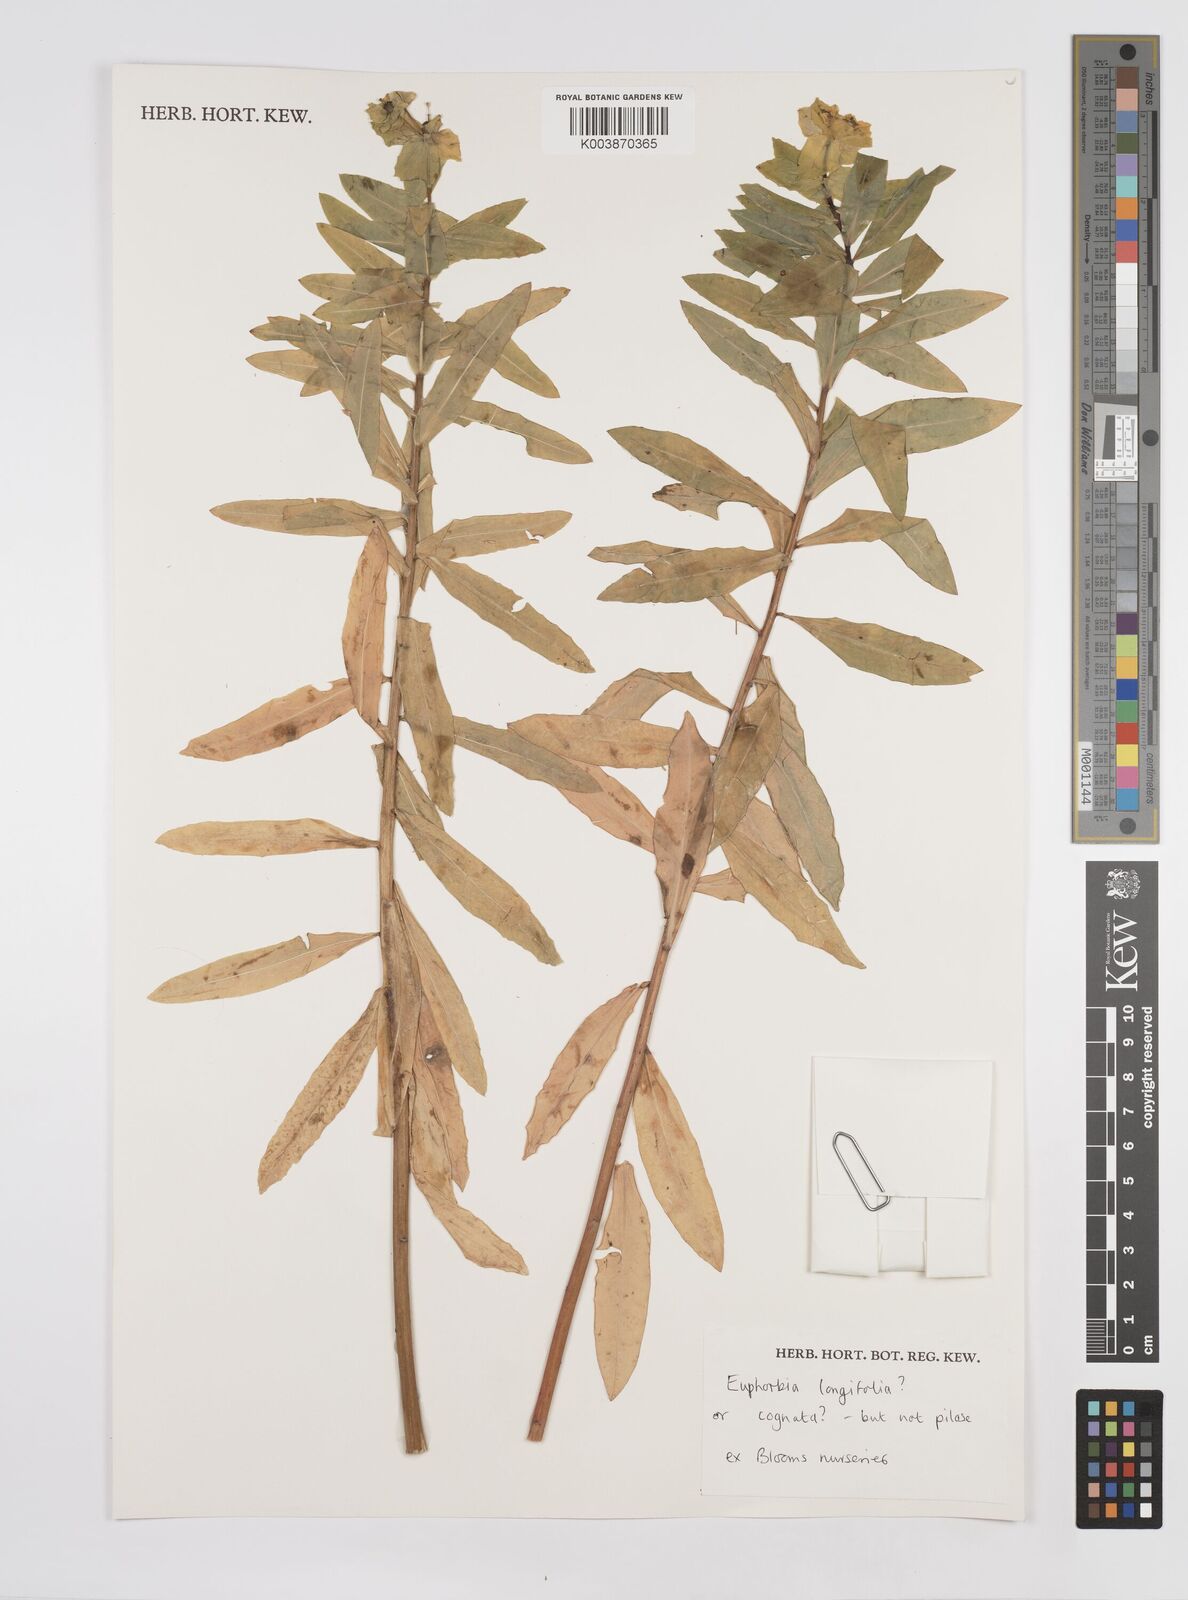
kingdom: Plantae
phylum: Tracheophyta
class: Magnoliopsida
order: Malpighiales
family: Euphorbiaceae
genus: Euphorbia
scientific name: Euphorbia
